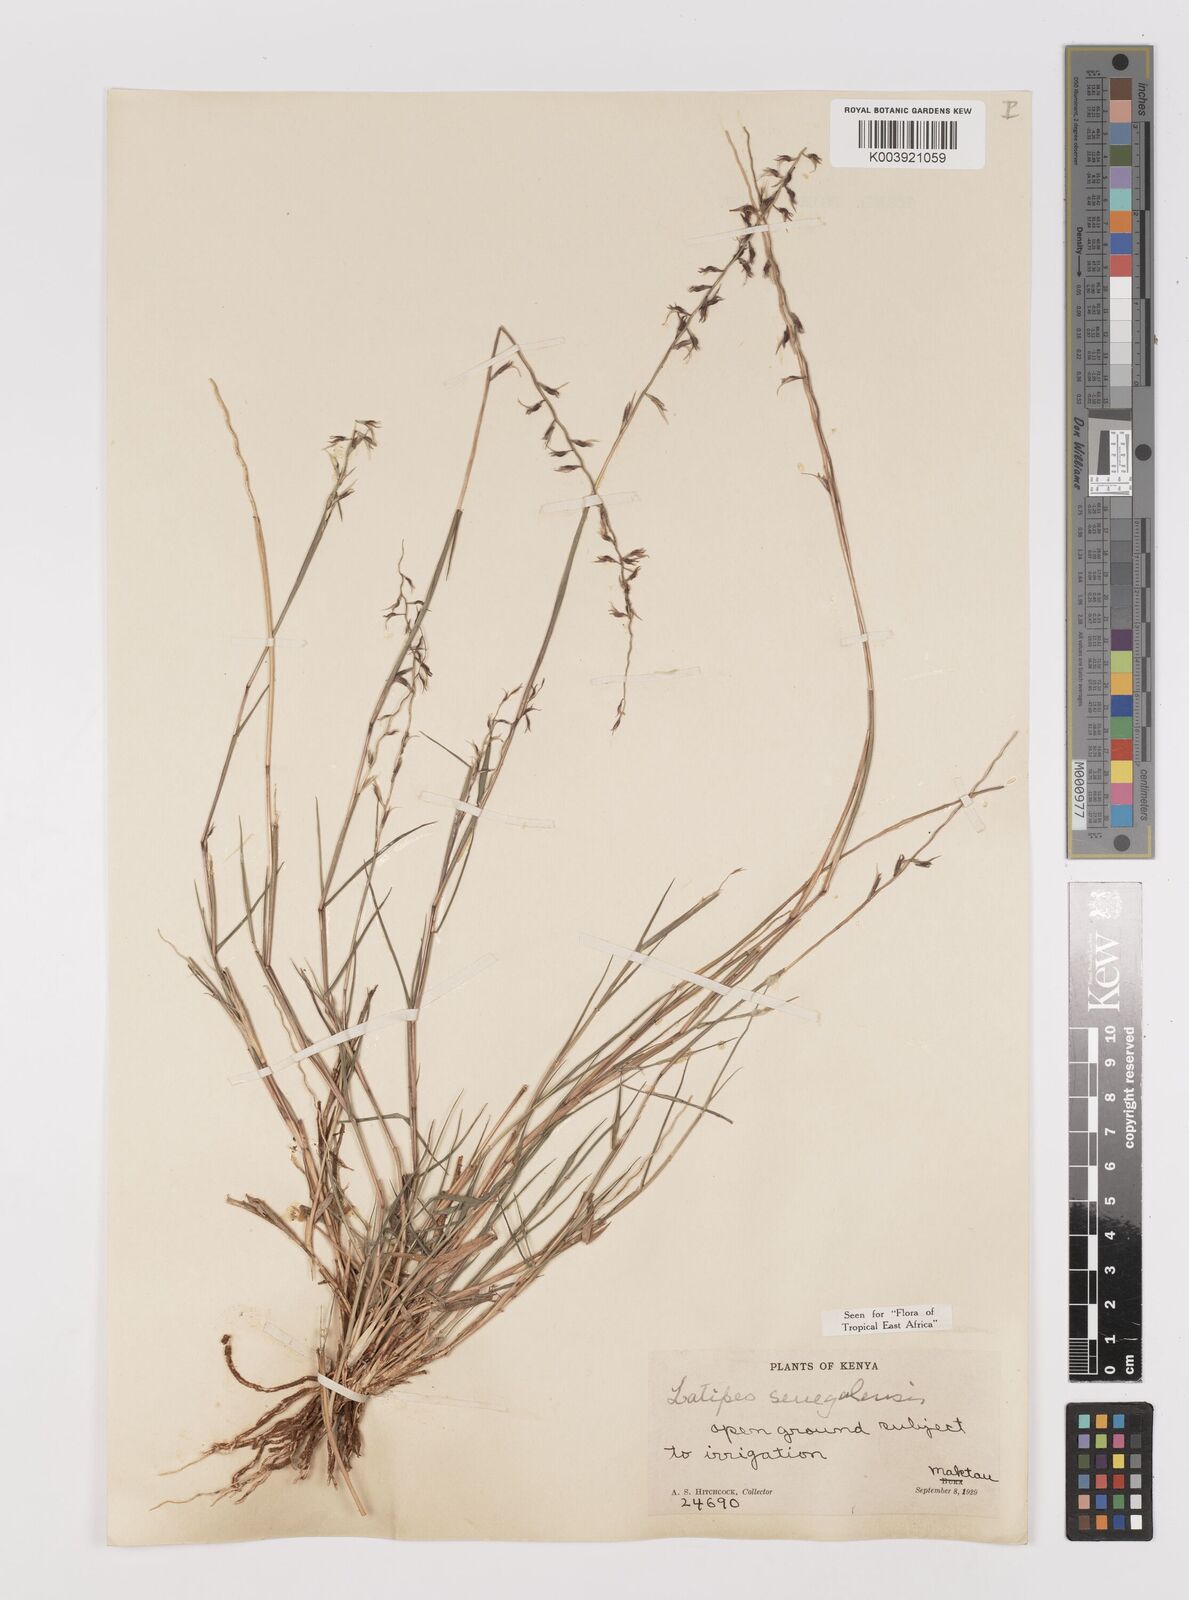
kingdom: Plantae
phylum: Tracheophyta
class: Liliopsida
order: Poales
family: Poaceae
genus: Leptothrium
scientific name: Leptothrium senegalense
